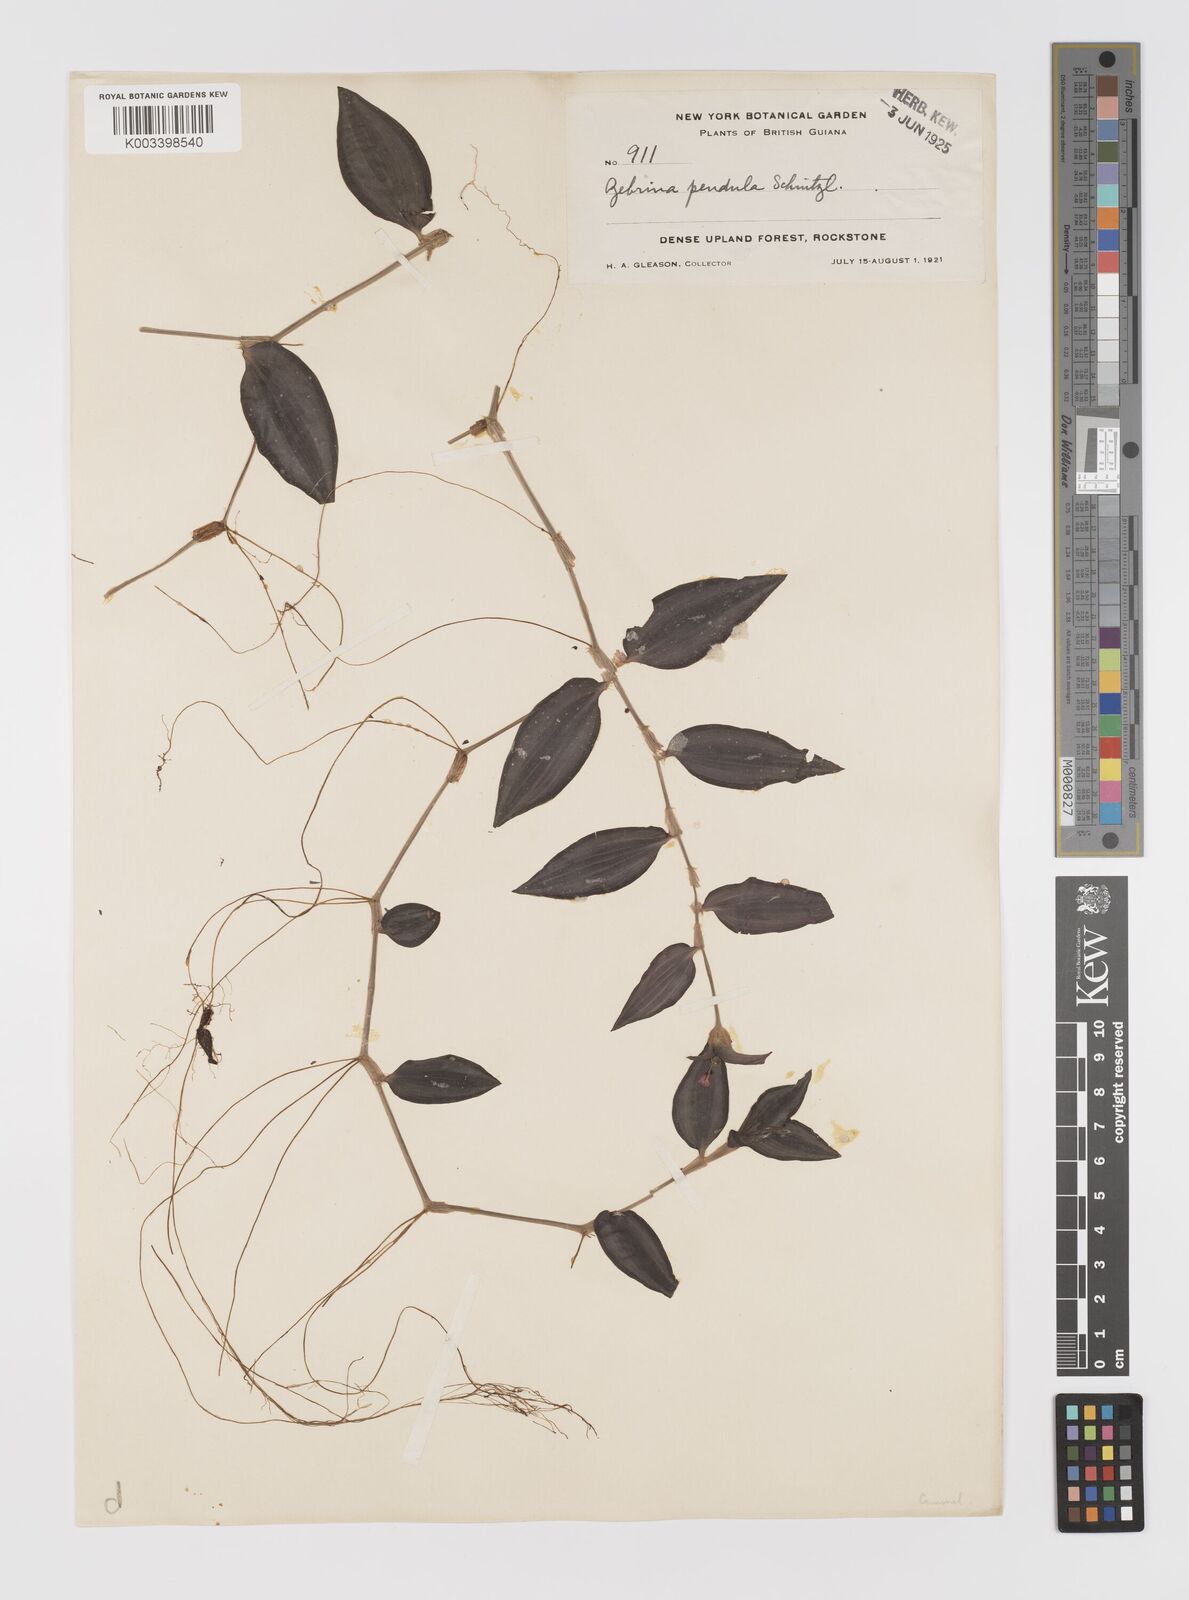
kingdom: Plantae
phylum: Tracheophyta
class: Liliopsida
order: Commelinales
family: Commelinaceae
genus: Tradescantia
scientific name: Tradescantia zebrina
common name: Inchplant
